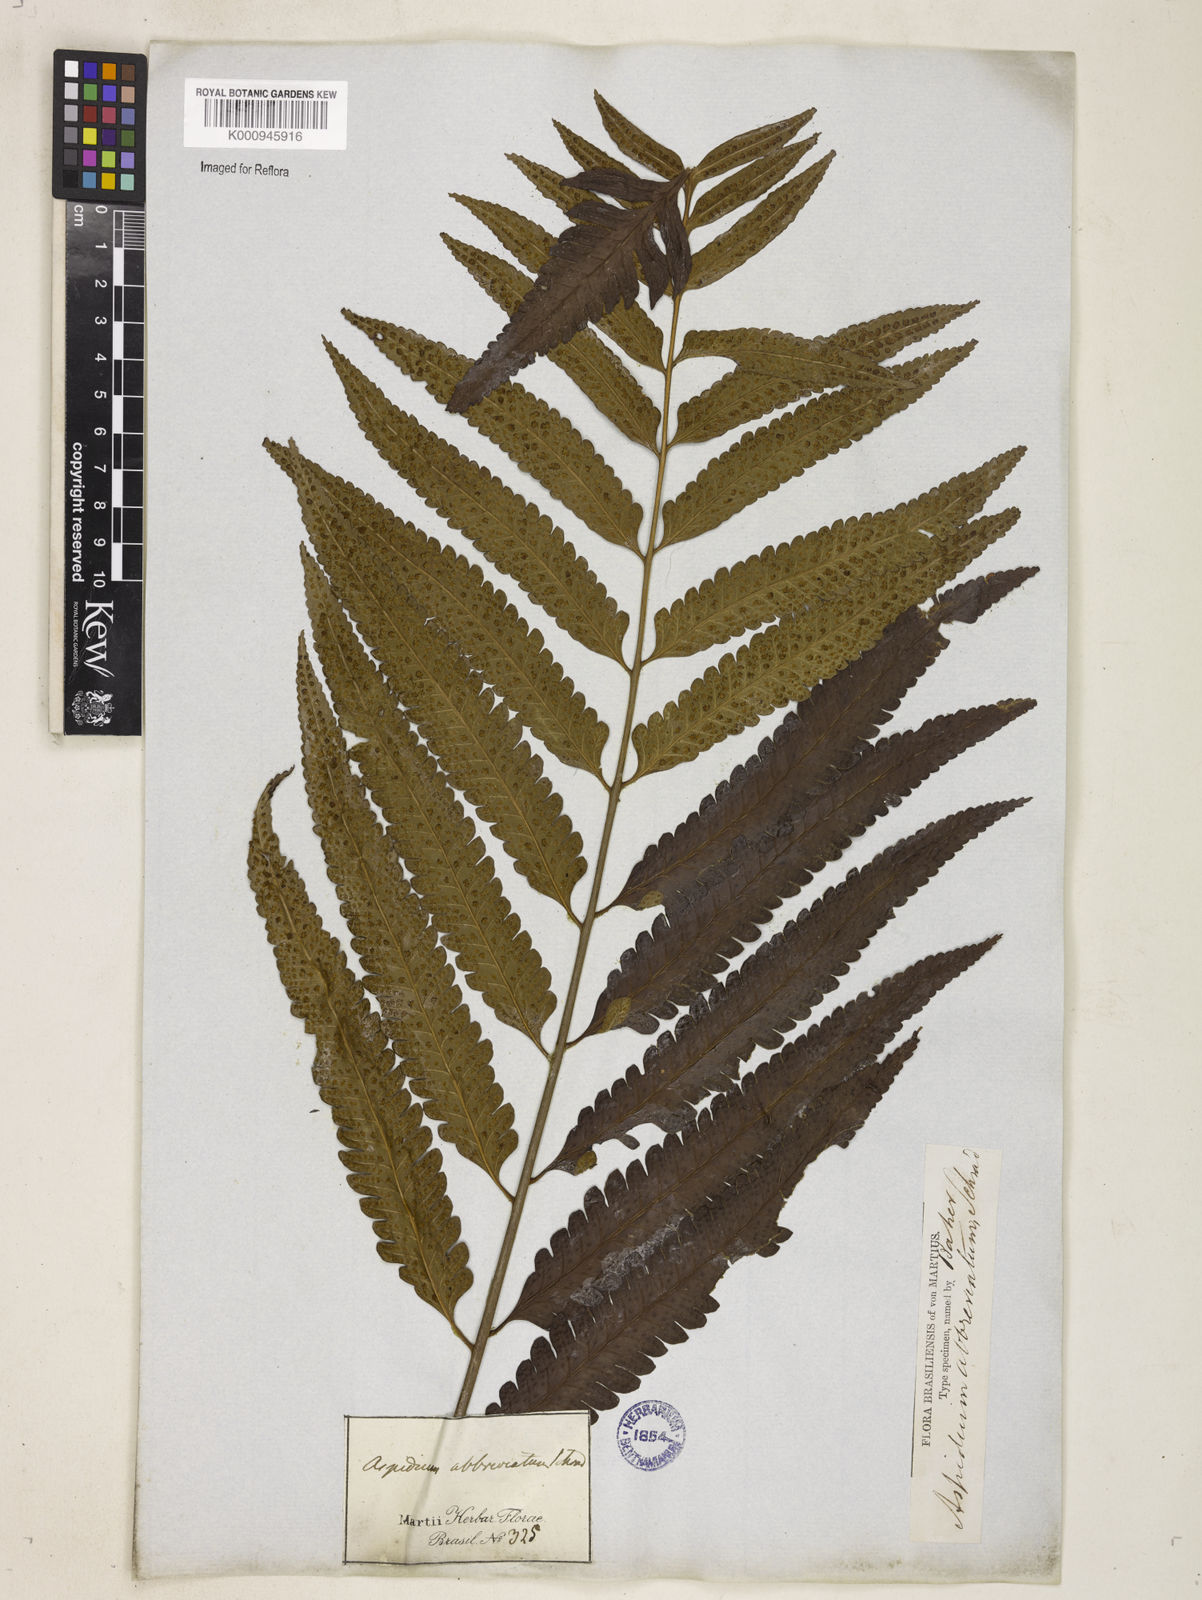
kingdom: Plantae
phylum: Tracheophyta
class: Polypodiopsida
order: Polypodiales
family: Dryopteridaceae
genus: Cyclodium
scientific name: Cyclodium
